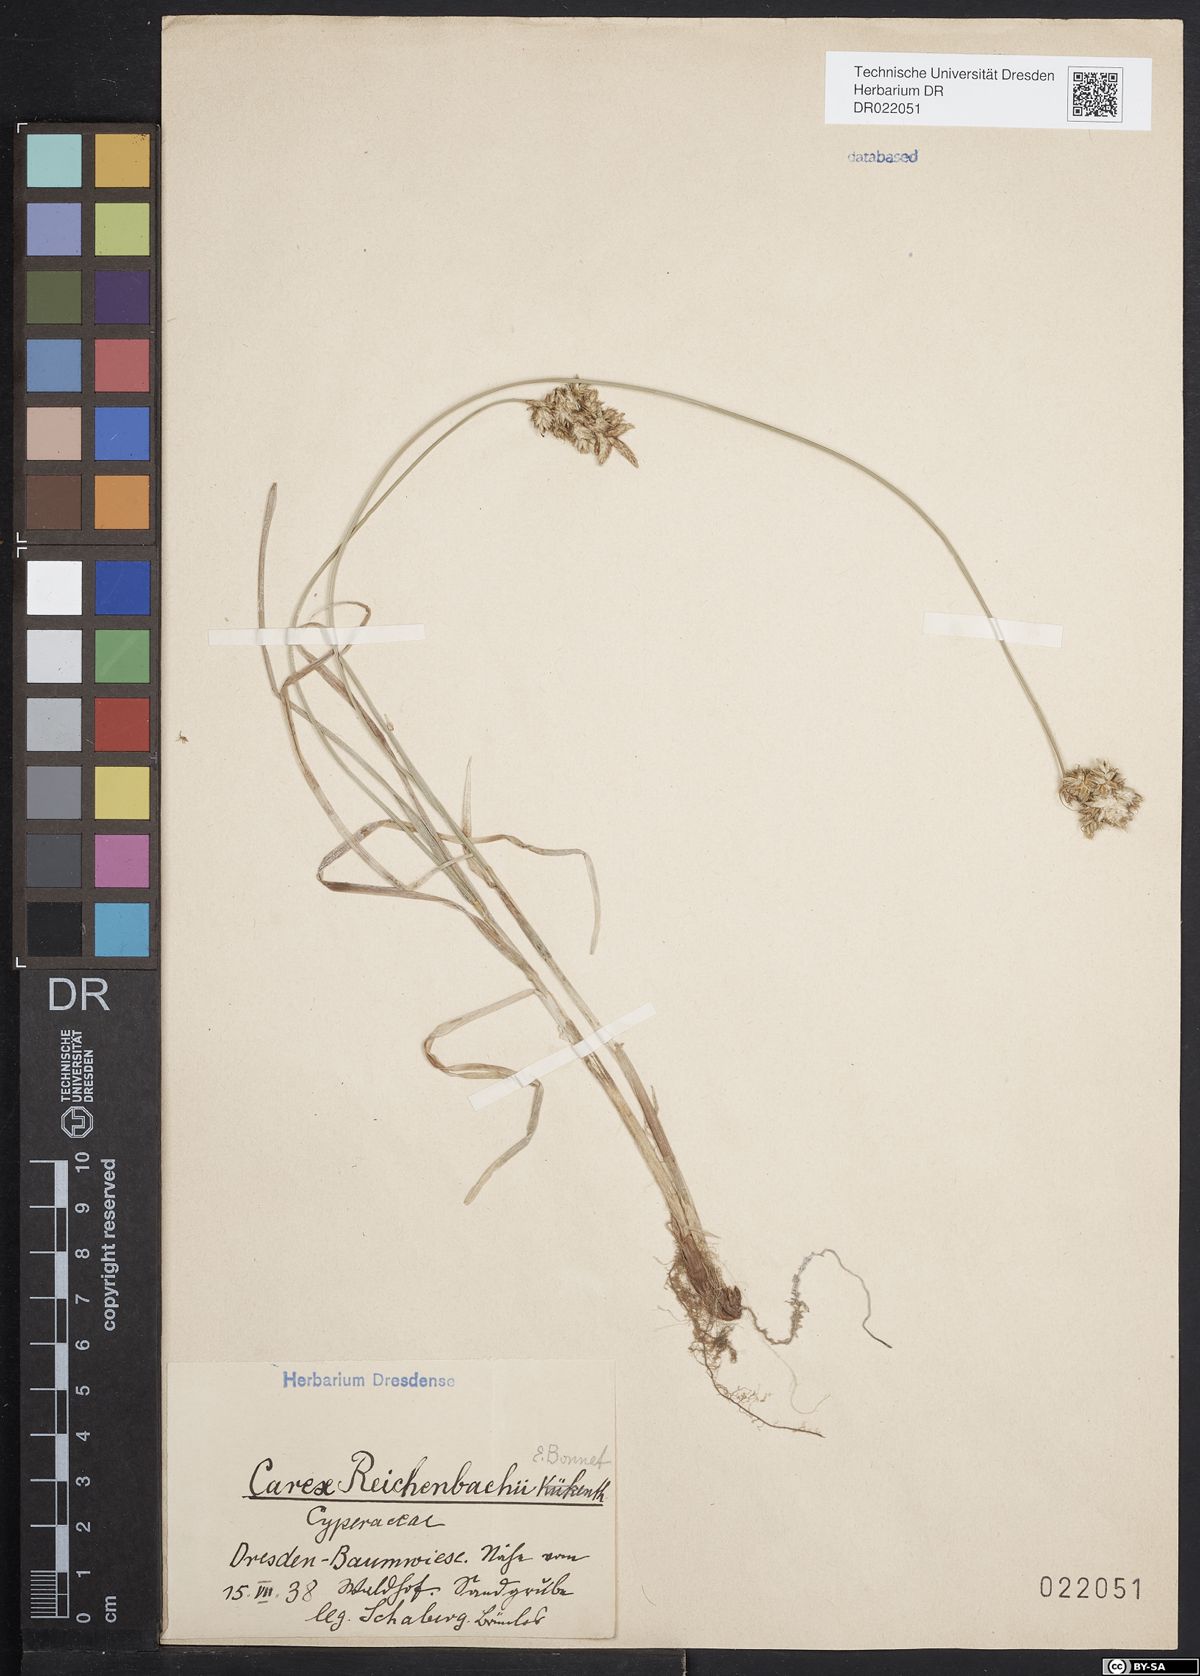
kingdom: Plantae
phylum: Tracheophyta
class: Liliopsida
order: Poales
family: Cyperaceae
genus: Carex
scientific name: Carex pseudobrizoides
